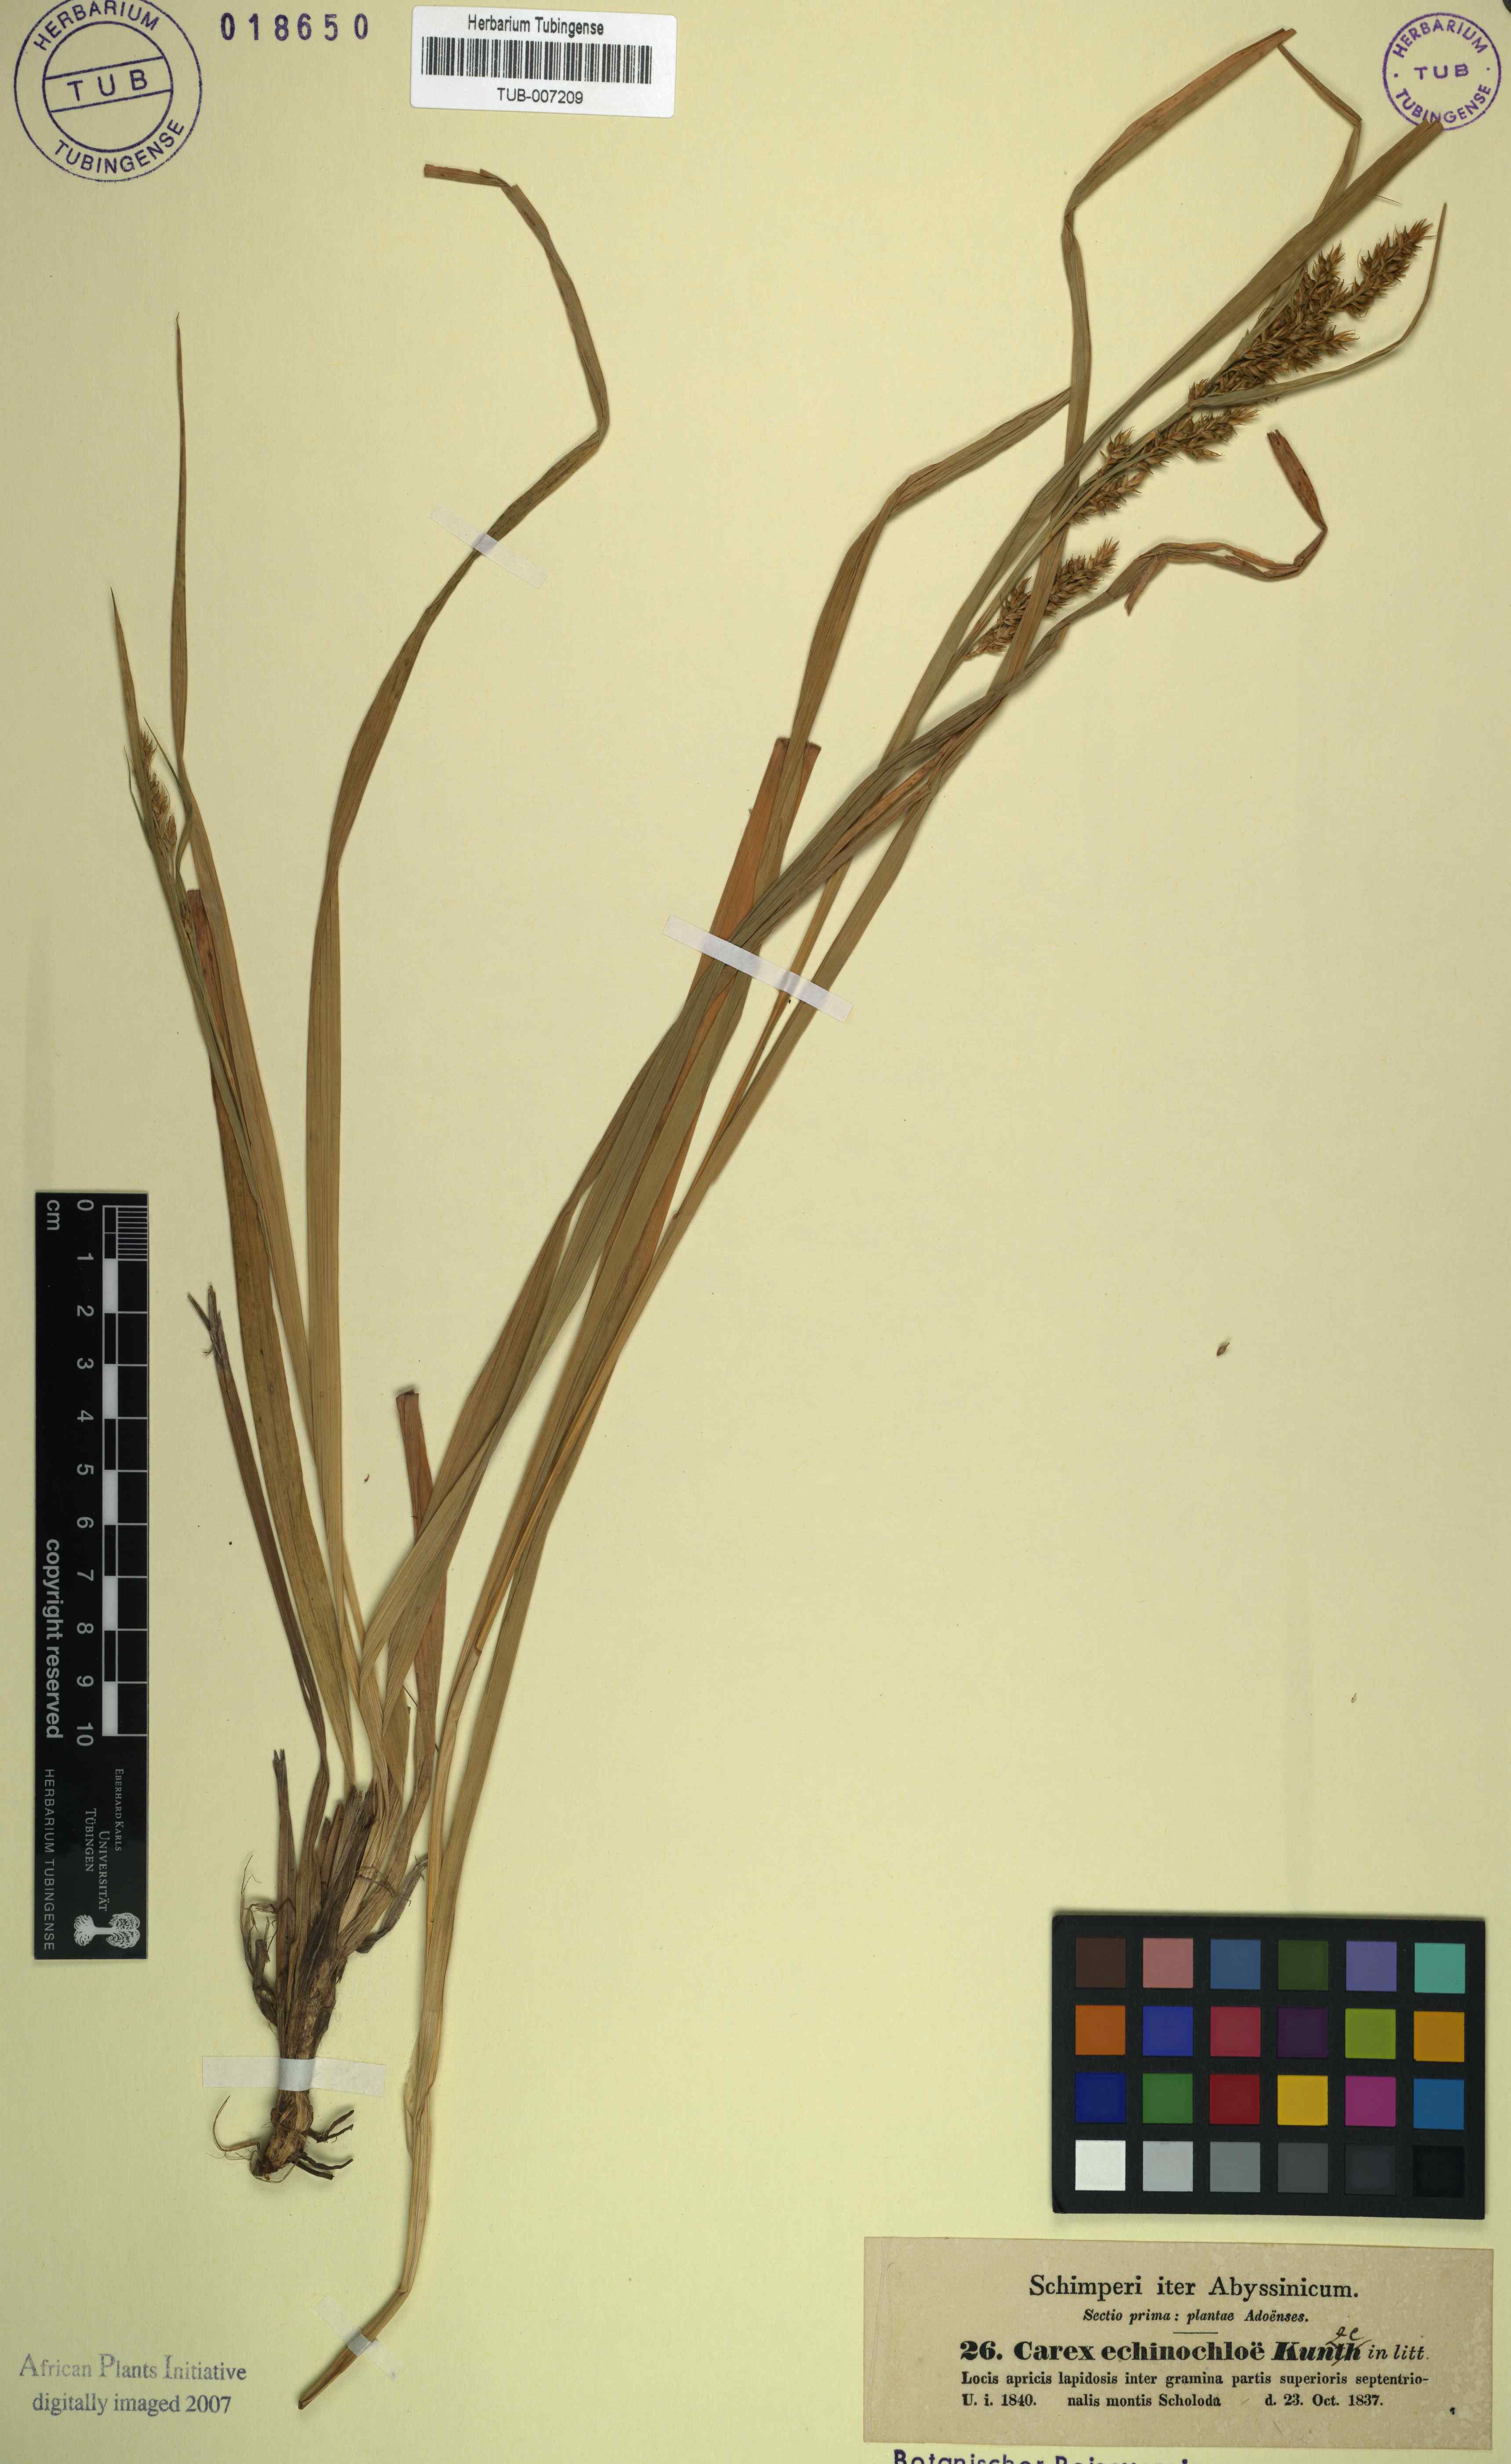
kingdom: Plantae
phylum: Tracheophyta
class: Liliopsida
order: Poales
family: Cyperaceae
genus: Carex
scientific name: Carex echinochloe
